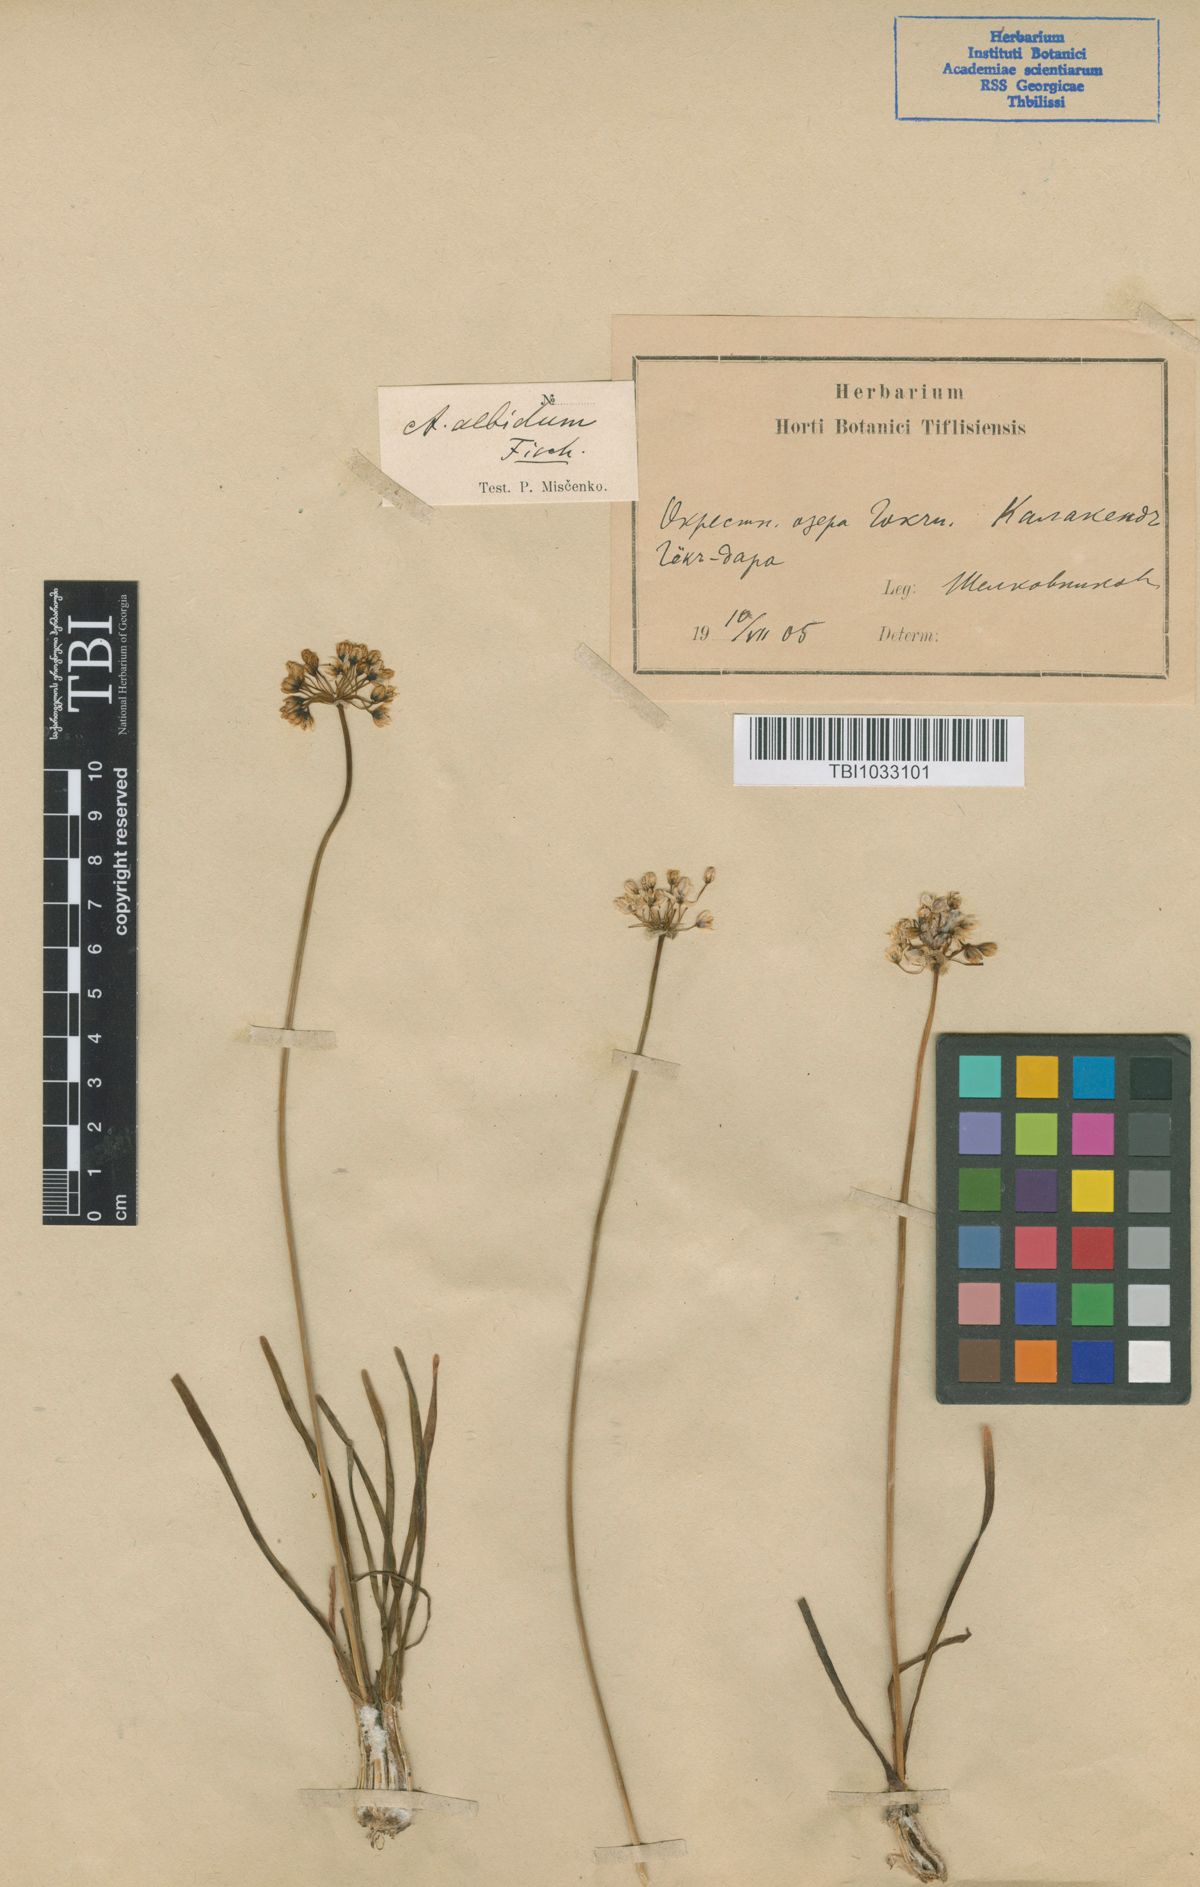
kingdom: Plantae
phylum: Tracheophyta
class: Liliopsida
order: Asparagales
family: Amaryllidaceae
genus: Allium
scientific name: Allium denudatum
